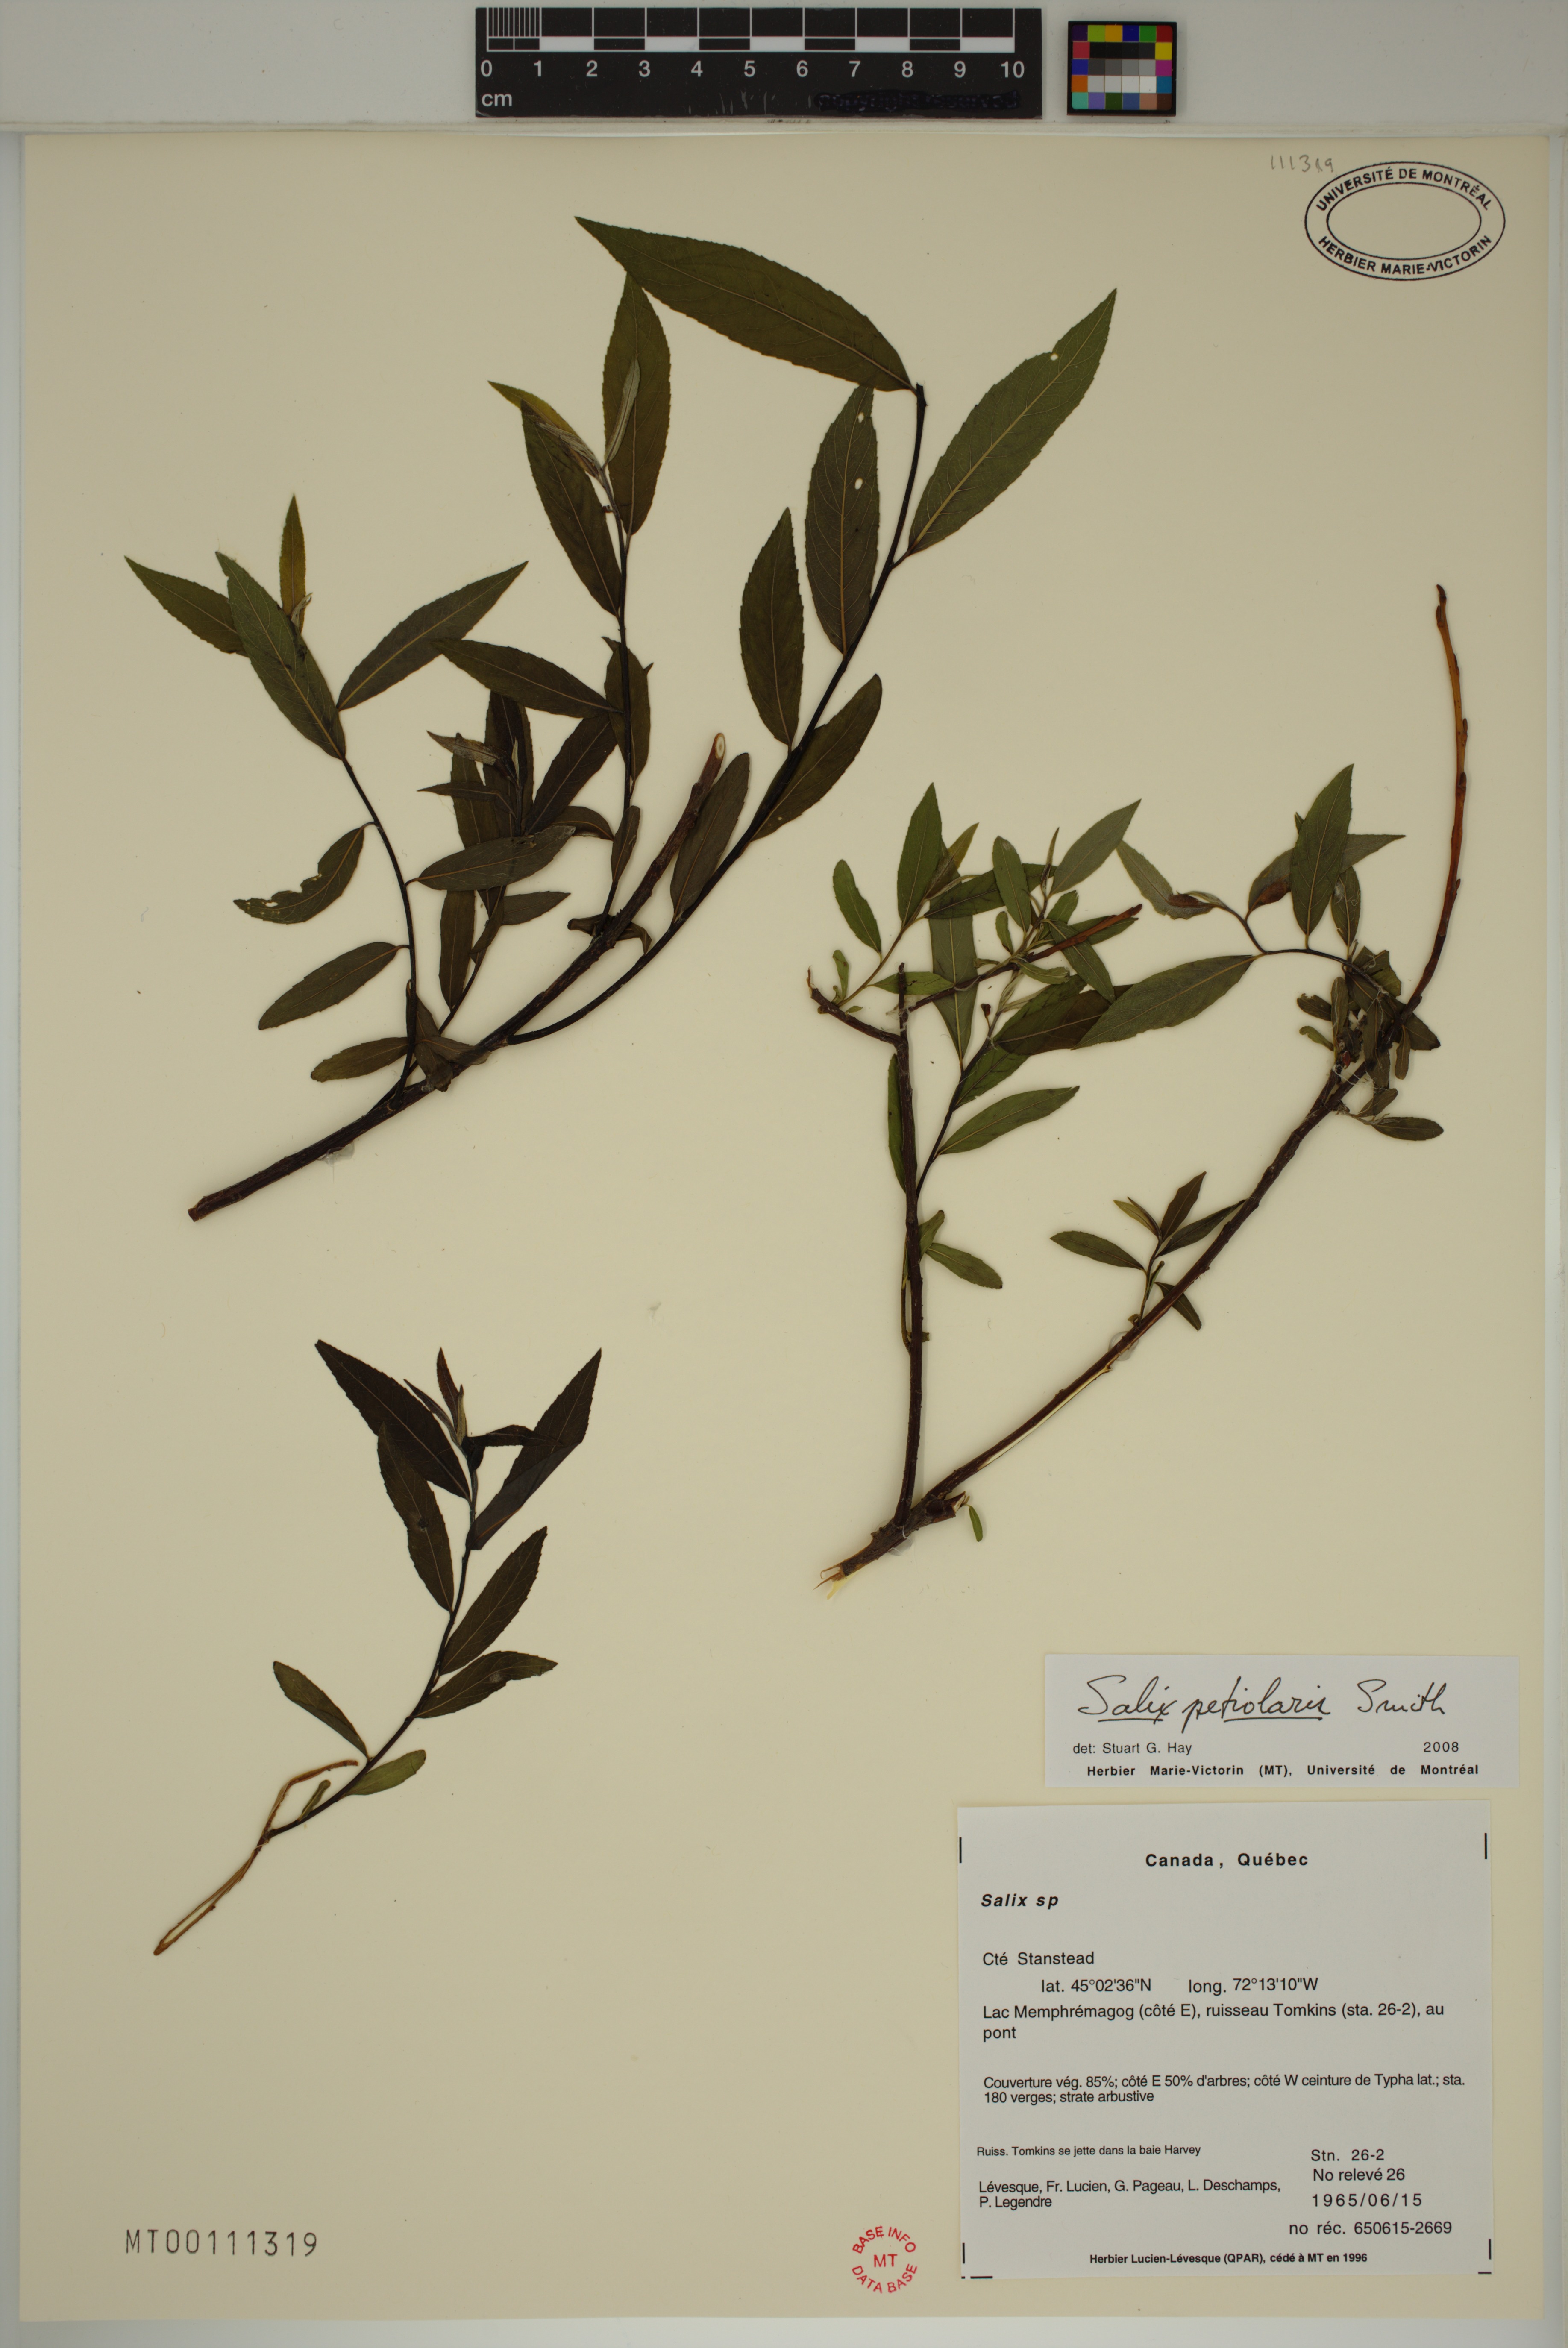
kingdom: Plantae
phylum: Tracheophyta
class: Magnoliopsida
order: Malpighiales
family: Salicaceae
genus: Salix
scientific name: Salix petiolaris
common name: Slender willow
